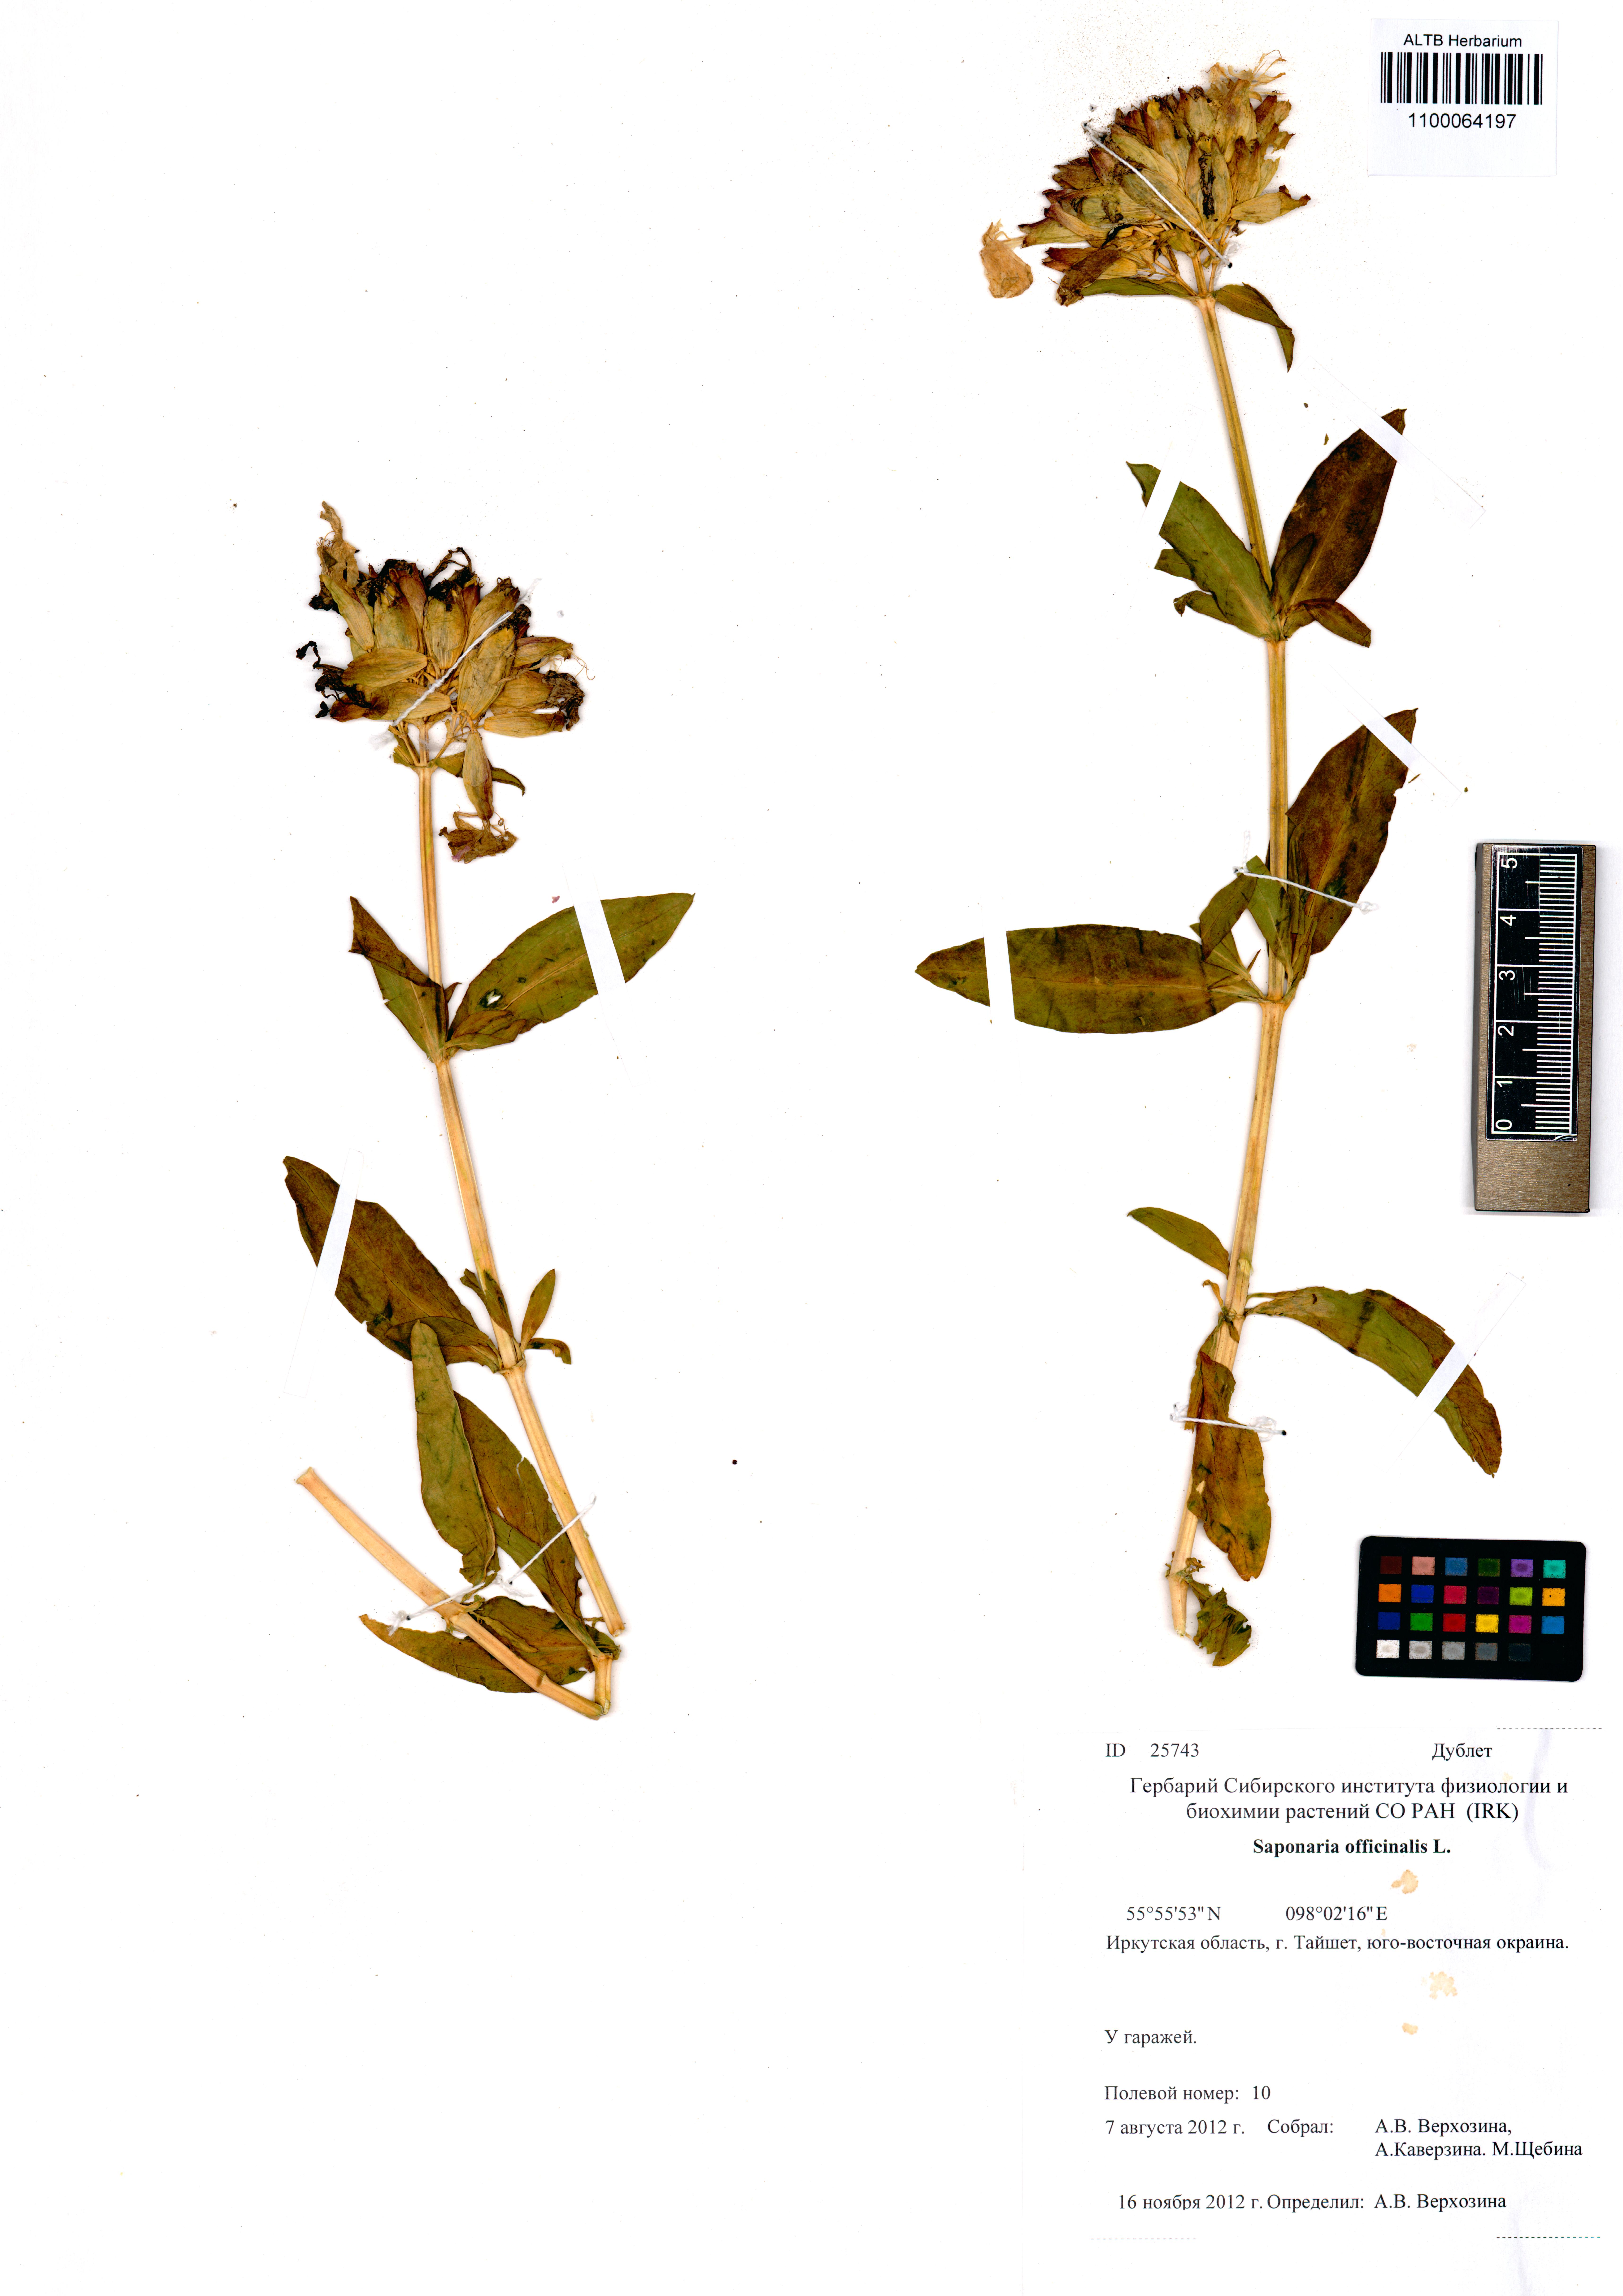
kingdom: Plantae
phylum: Tracheophyta
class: Magnoliopsida
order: Caryophyllales
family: Caryophyllaceae
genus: Saponaria
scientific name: Saponaria officinalis
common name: Soapwort
